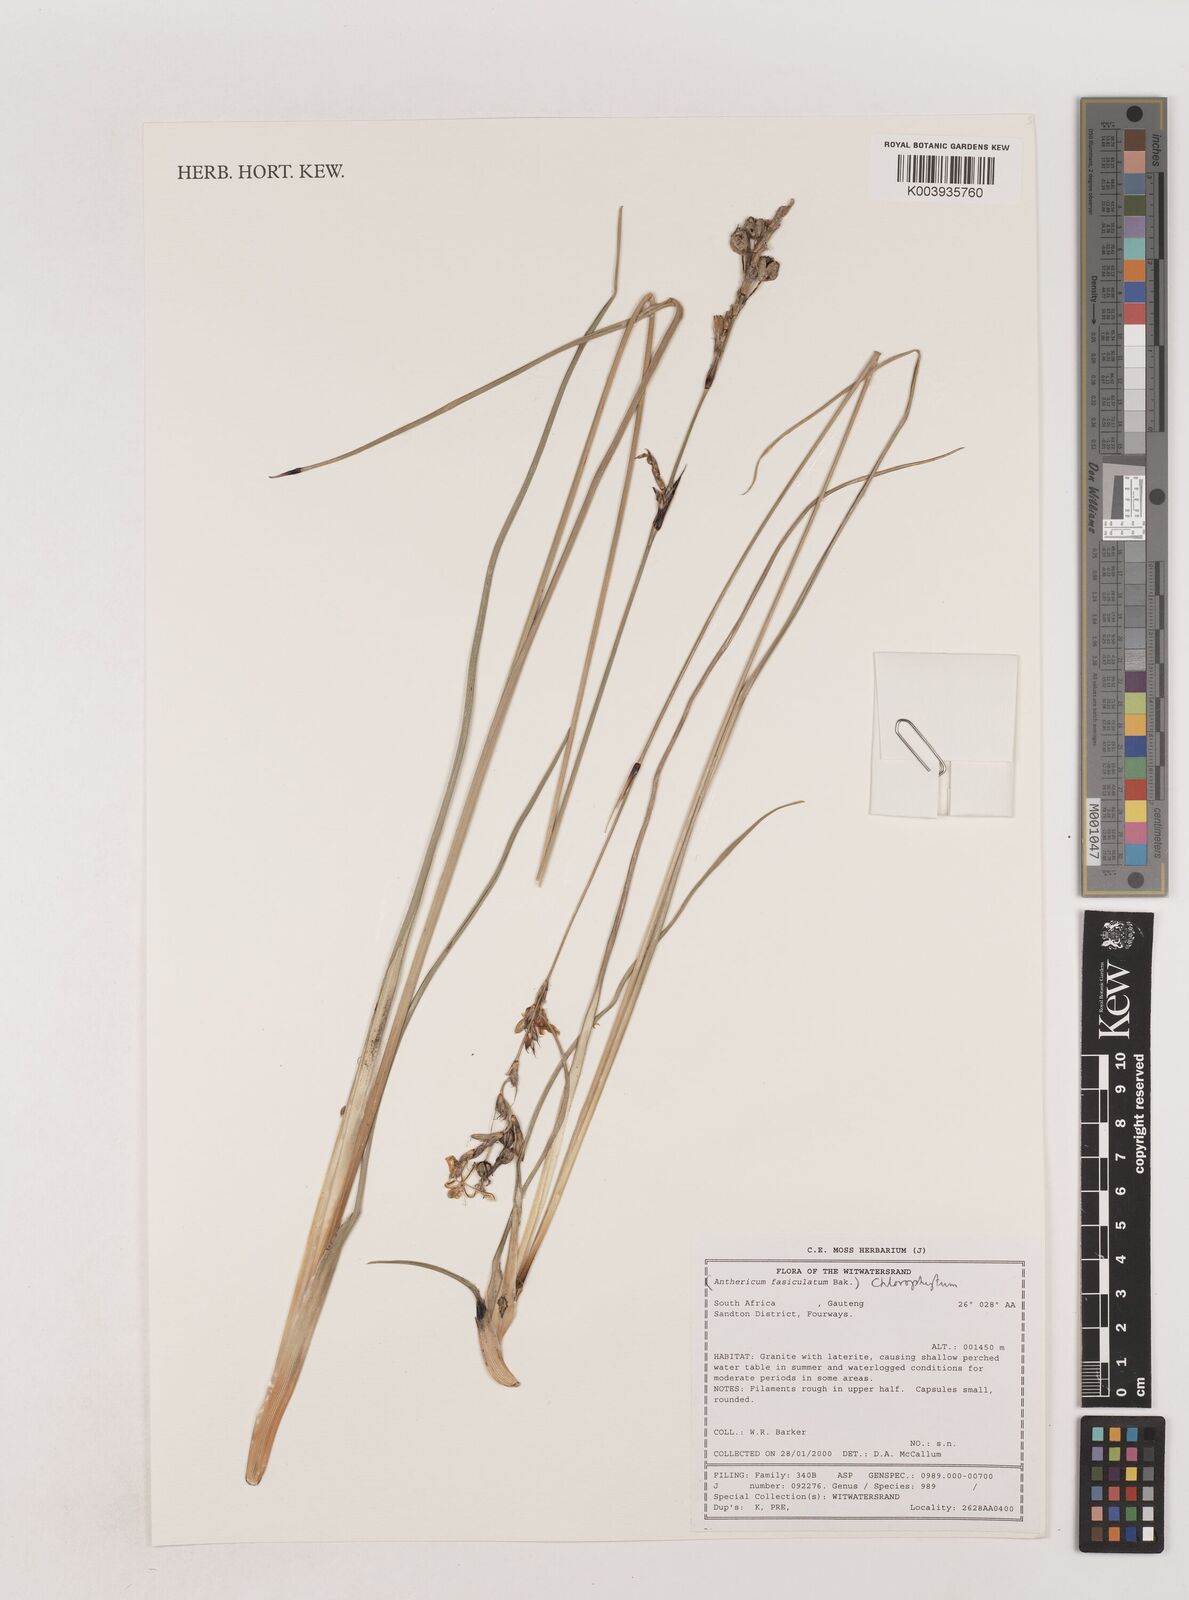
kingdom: Plantae
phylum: Tracheophyta
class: Liliopsida
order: Asparagales
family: Asparagaceae
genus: Chlorophytum
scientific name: Chlorophytum fasciculatum
